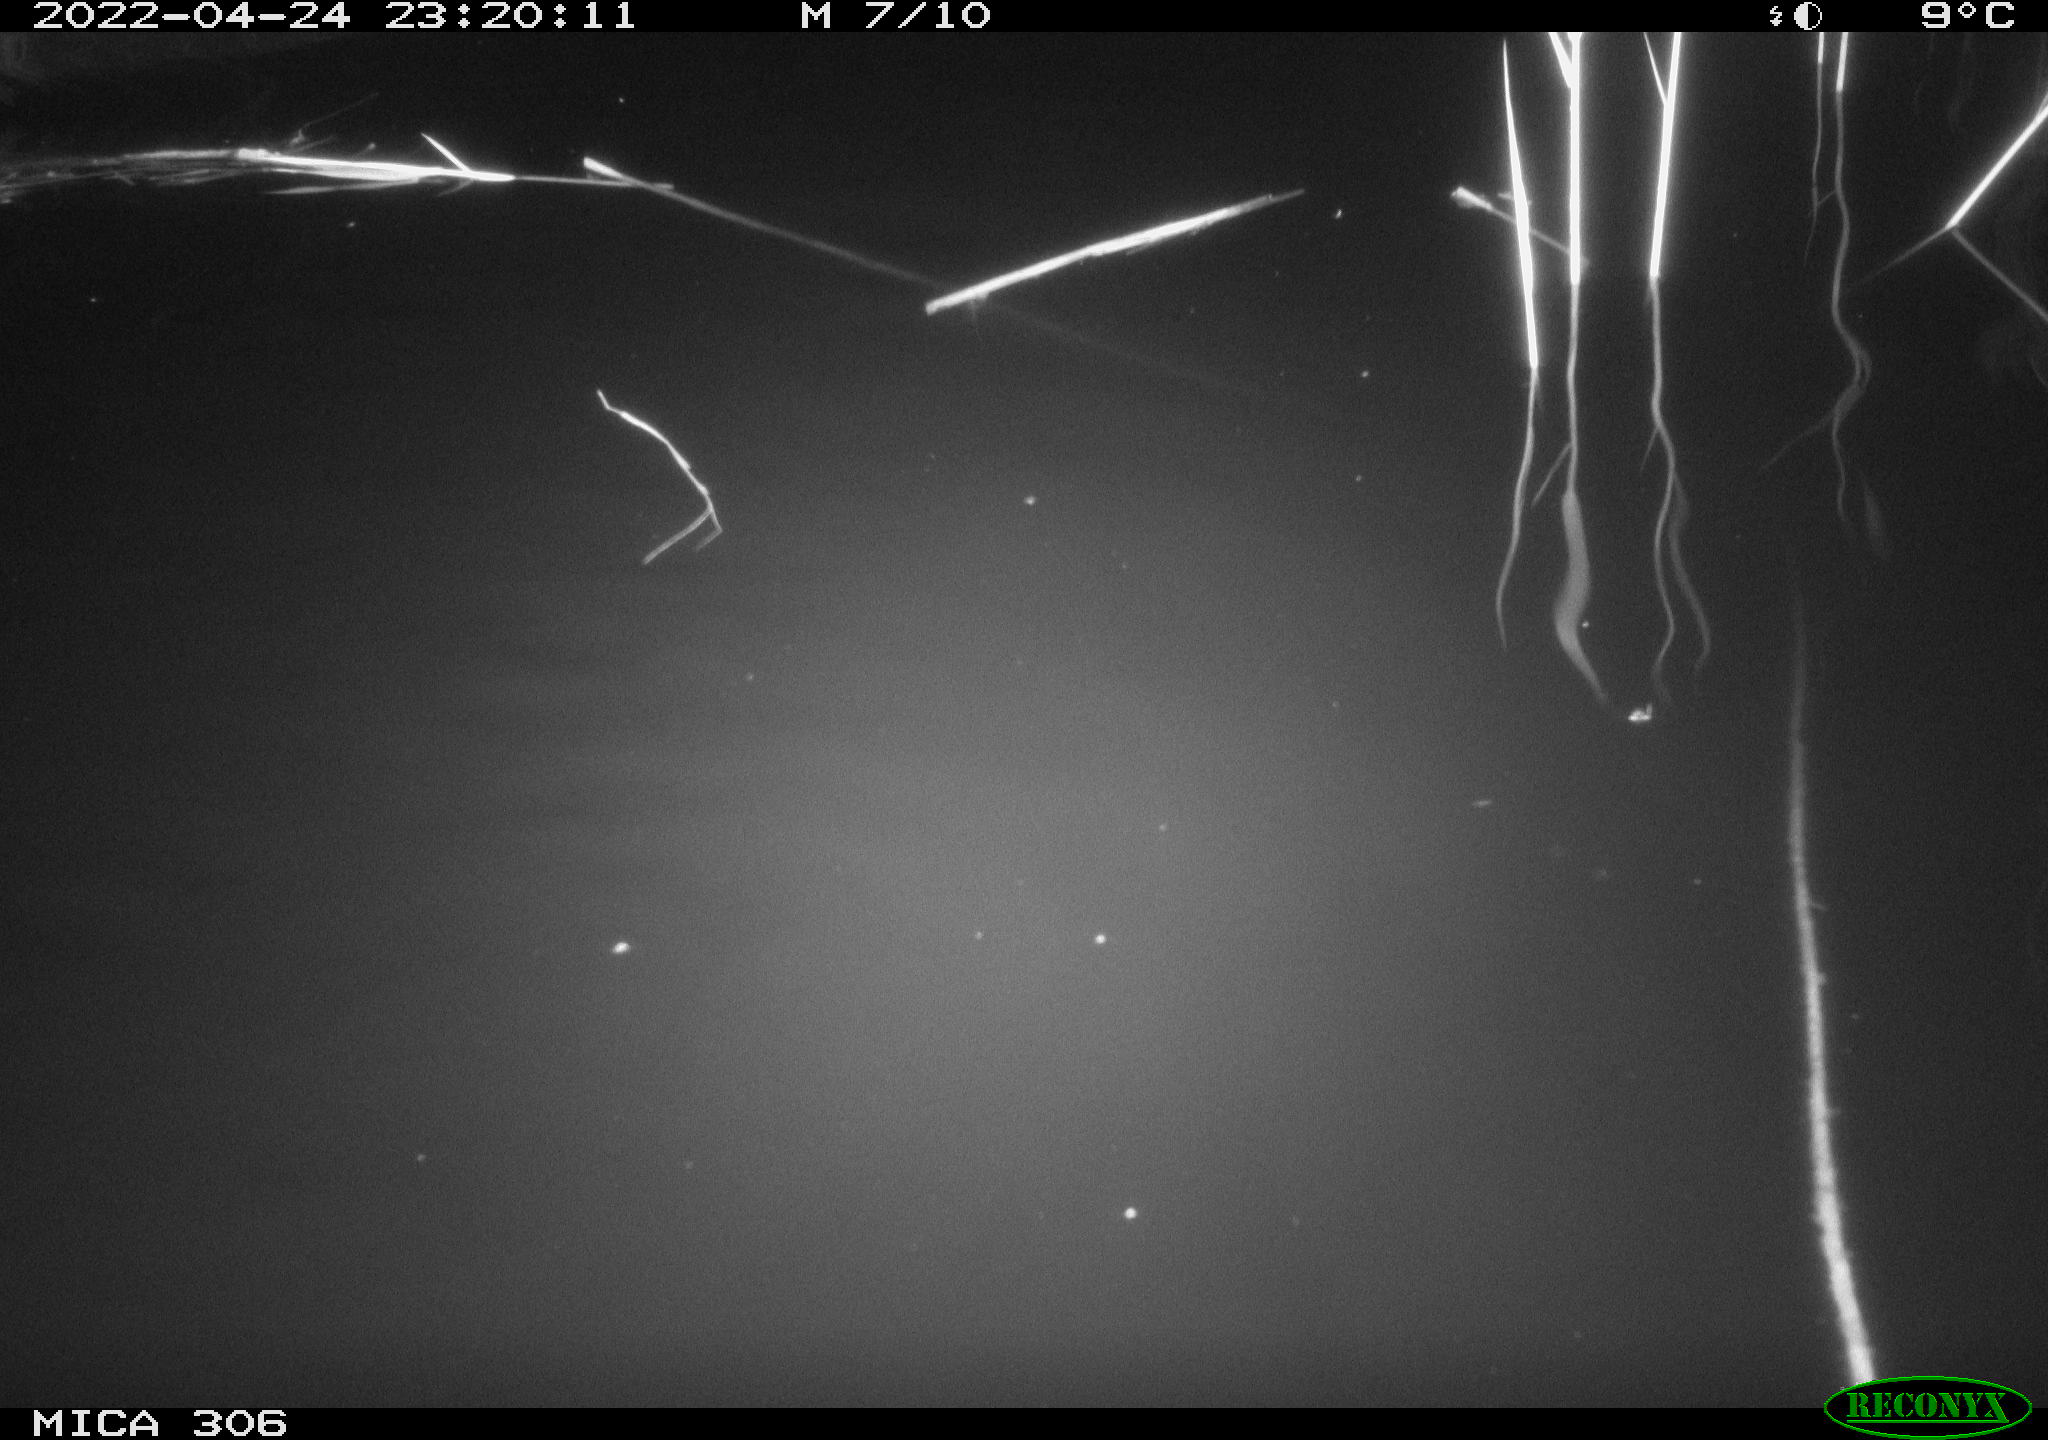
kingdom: Animalia
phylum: Chordata
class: Mammalia
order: Rodentia
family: Cricetidae
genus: Ondatra
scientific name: Ondatra zibethicus
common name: Muskrat
